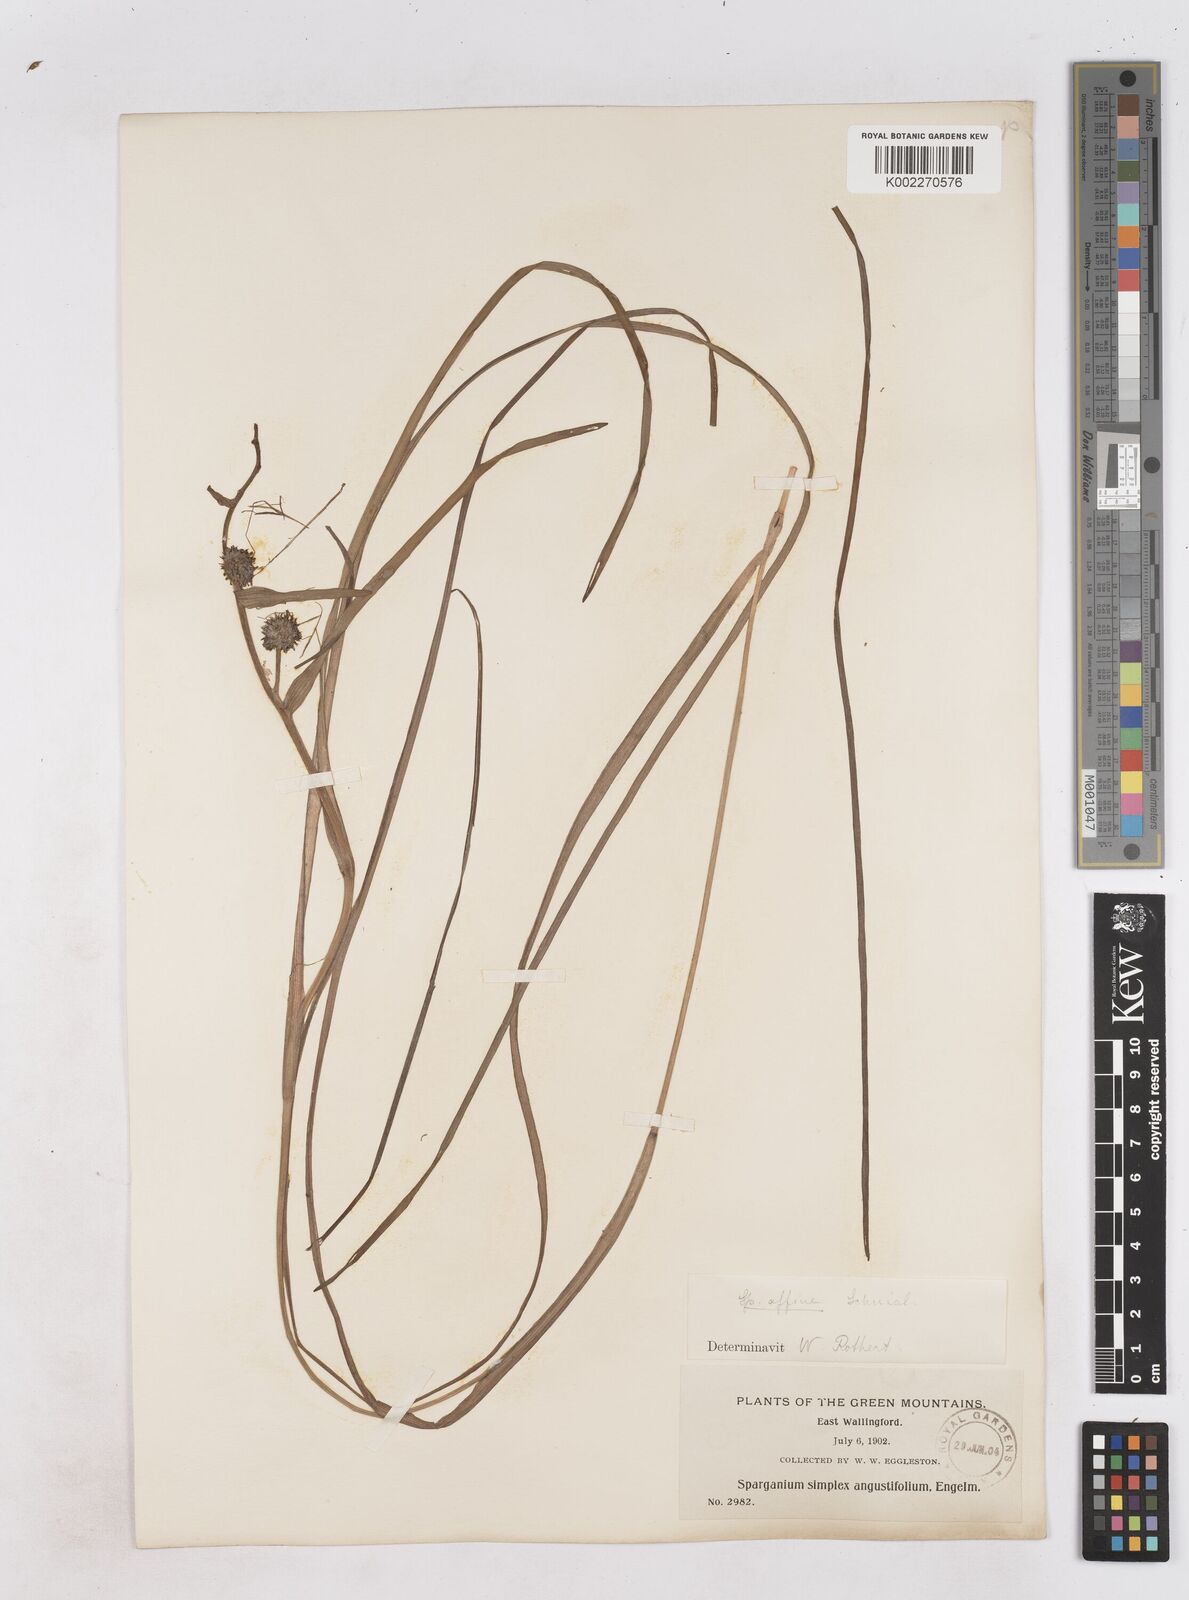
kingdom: Plantae
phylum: Tracheophyta
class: Liliopsida
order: Poales
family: Typhaceae
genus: Sparganium
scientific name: Sparganium angustifolium
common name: Floating bur-reed
